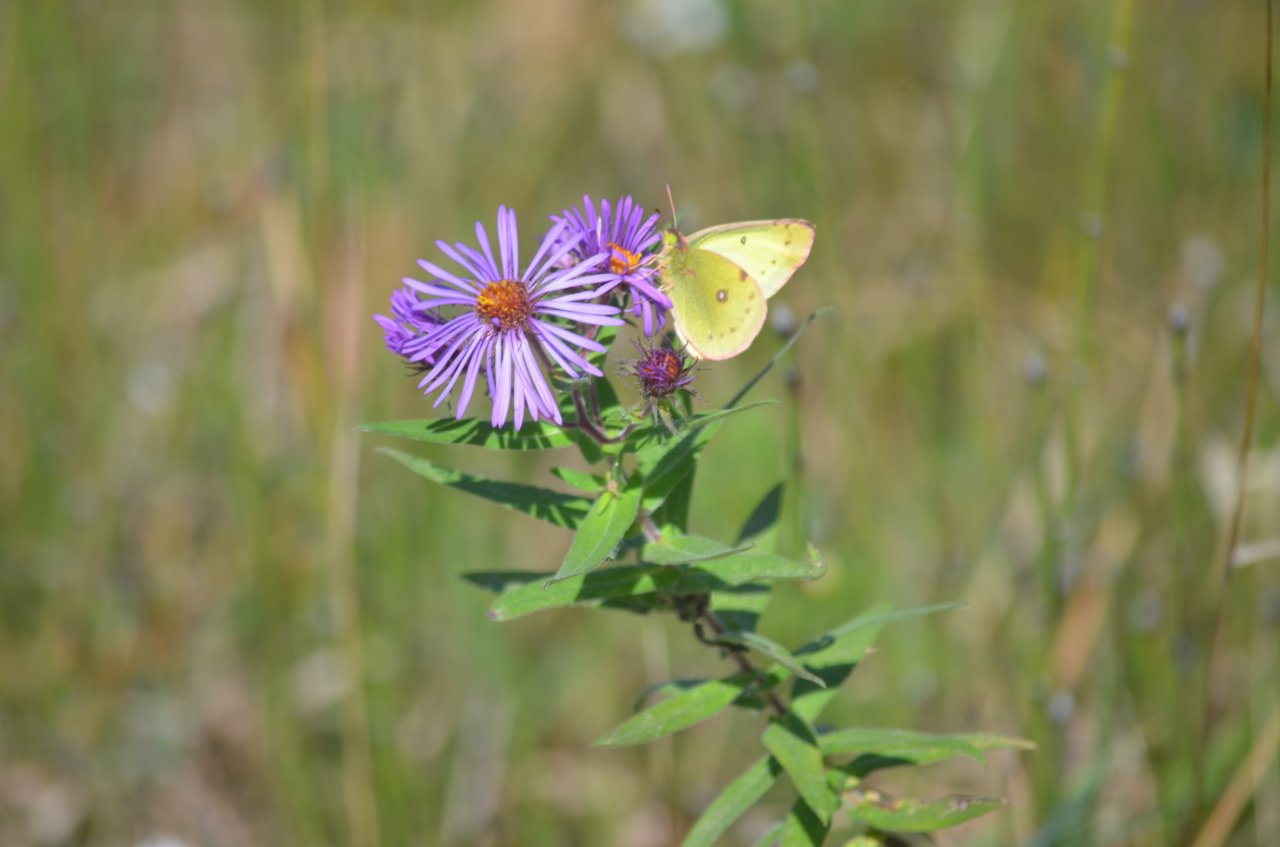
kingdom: Animalia
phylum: Arthropoda
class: Insecta
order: Lepidoptera
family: Pieridae
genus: Colias
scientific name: Colias philodice
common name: Clouded Sulphur
